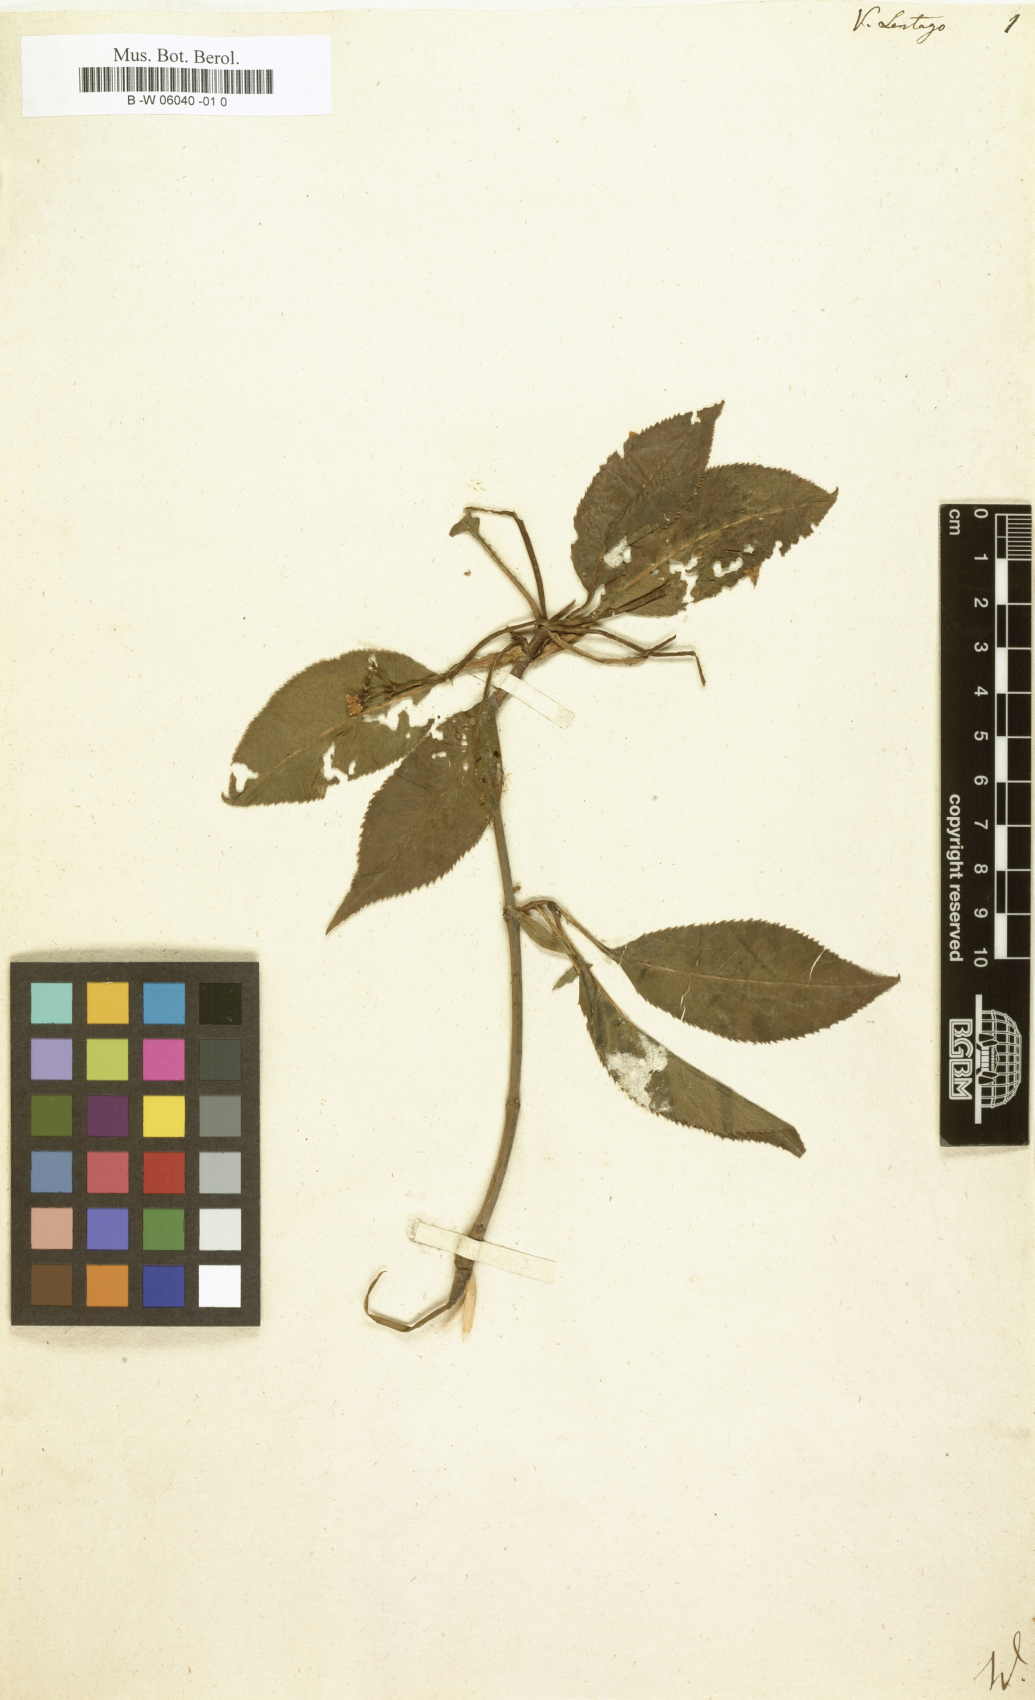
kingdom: Plantae
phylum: Tracheophyta
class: Magnoliopsida
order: Dipsacales
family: Viburnaceae
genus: Viburnum
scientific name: Viburnum lentago
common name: Black haw
